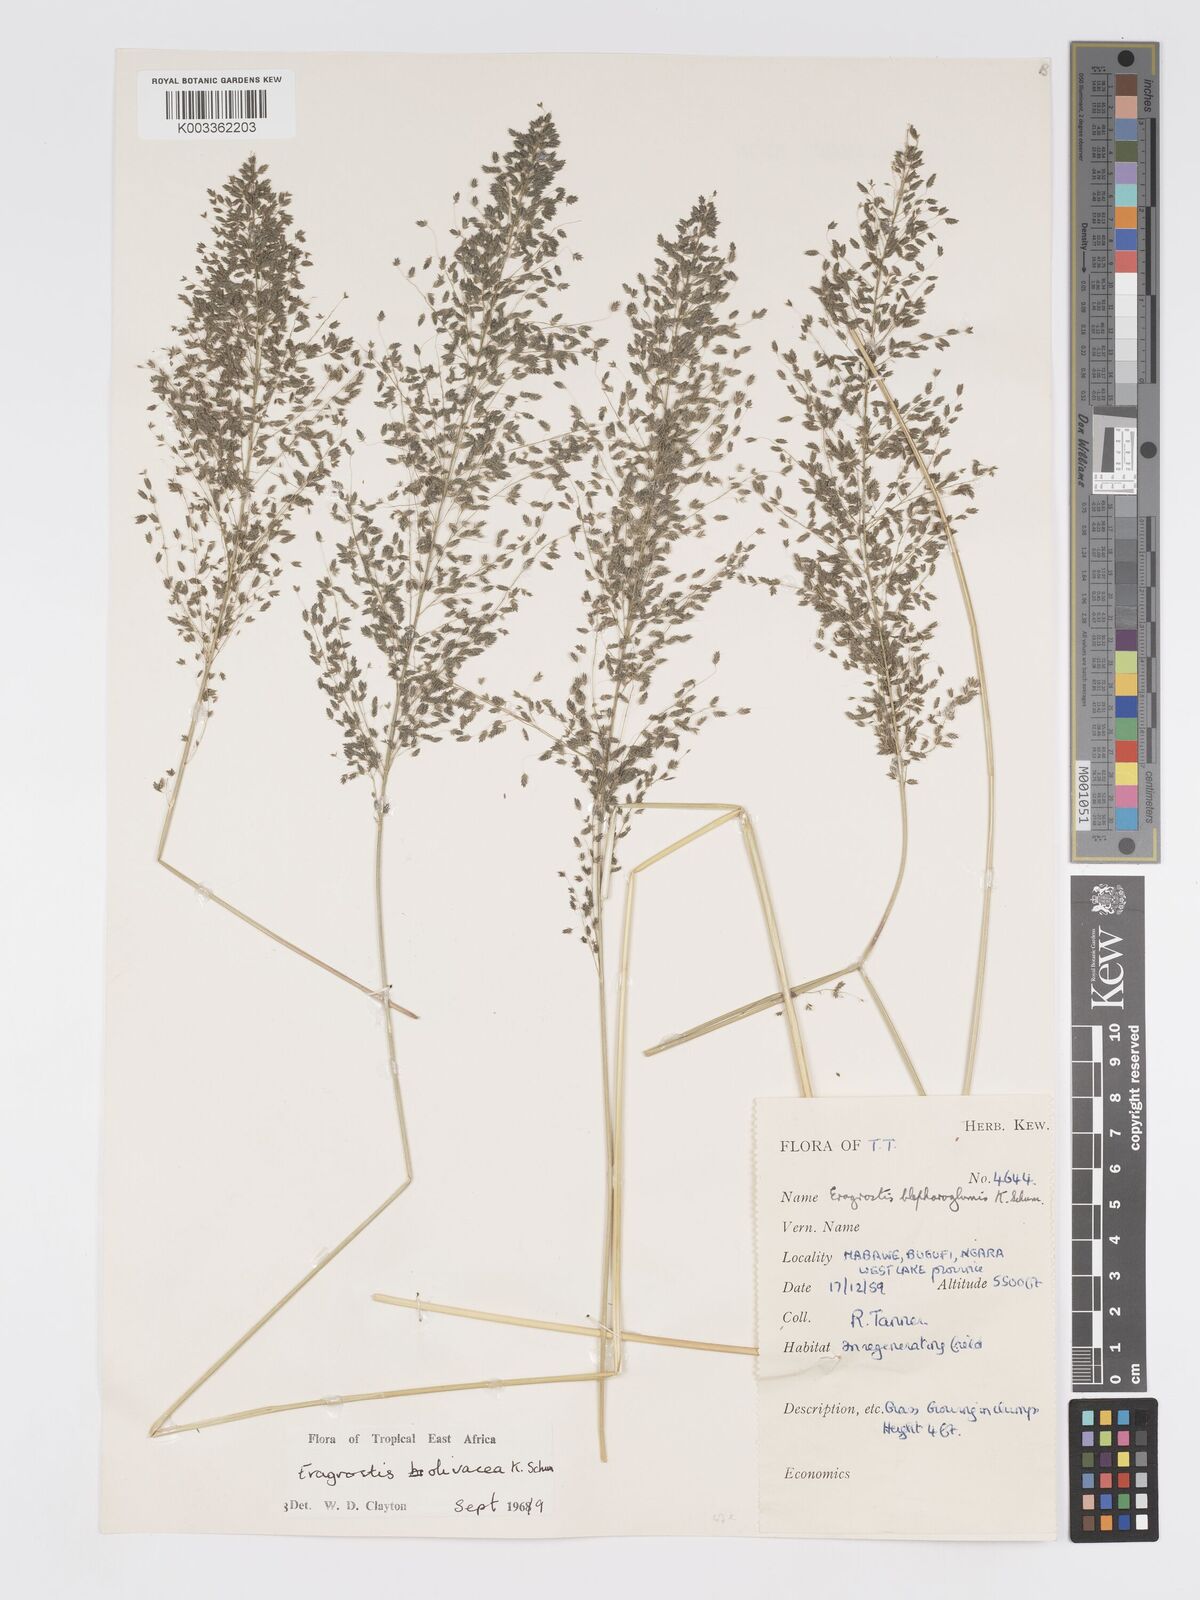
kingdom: Plantae
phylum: Tracheophyta
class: Liliopsida
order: Poales
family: Poaceae
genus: Eragrostis
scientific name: Eragrostis olivacea
